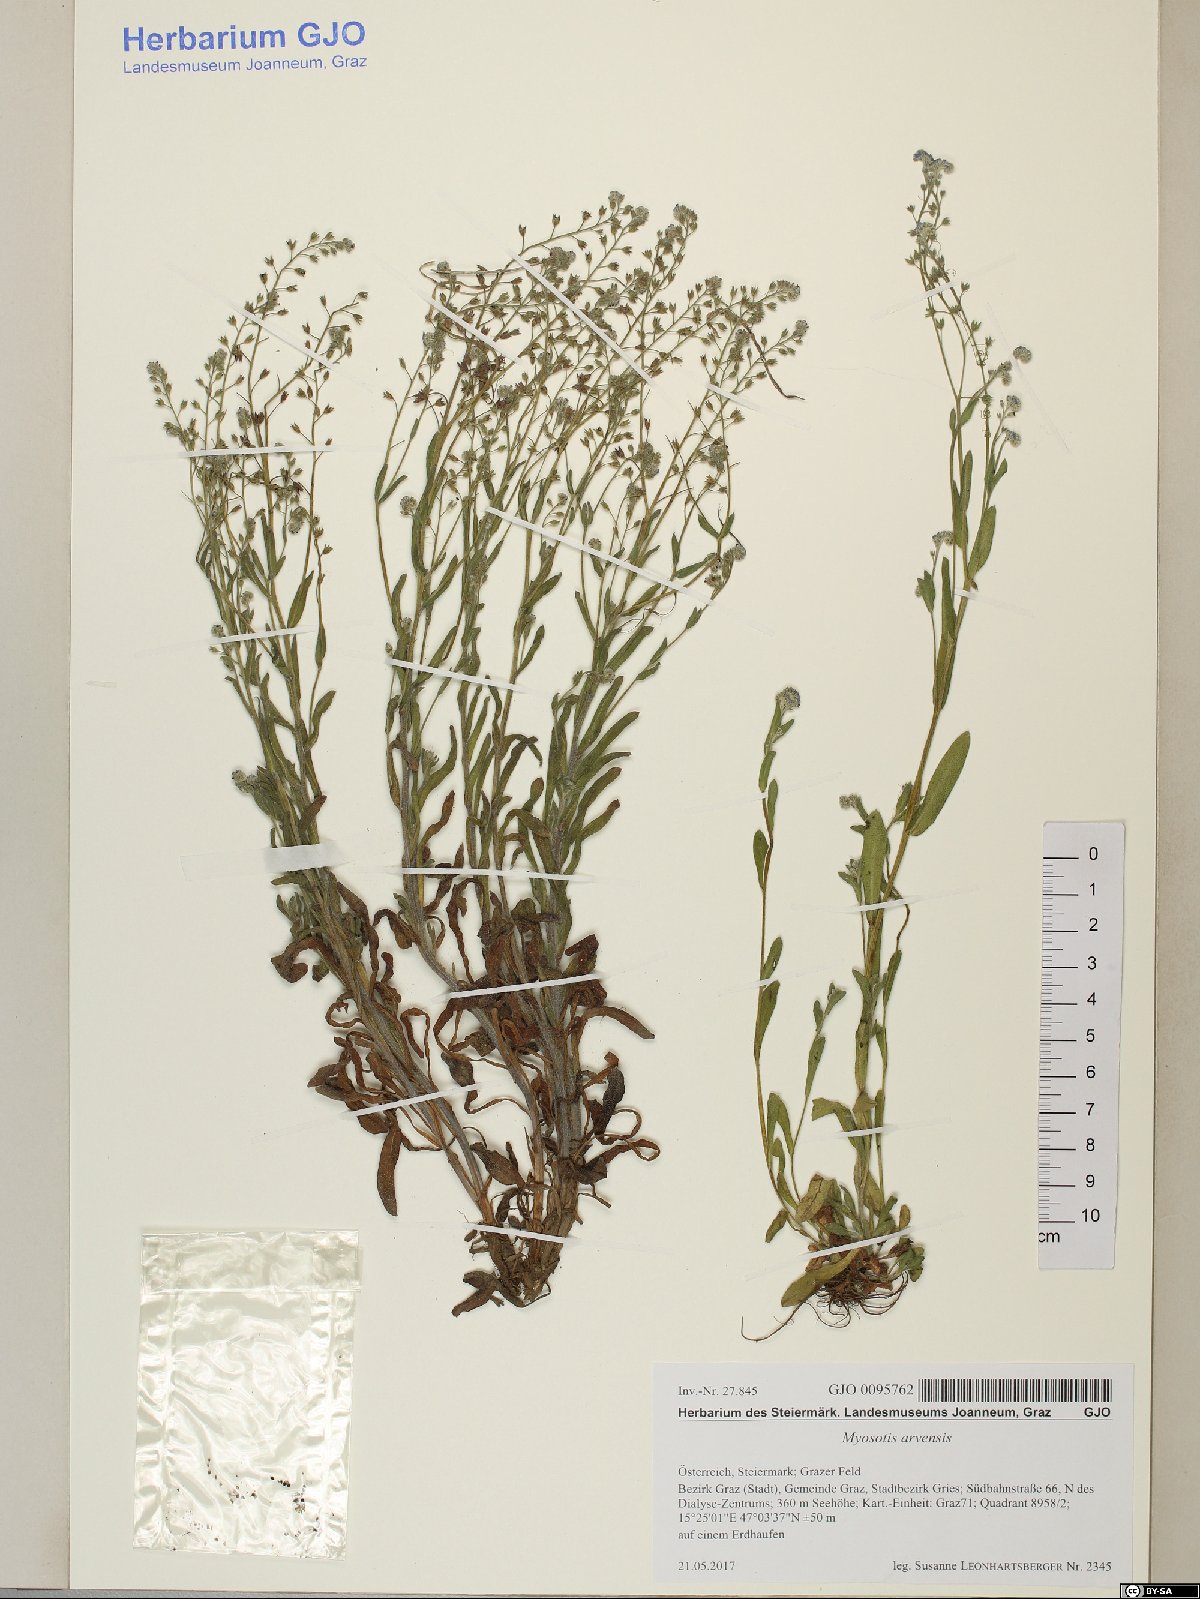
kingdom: Plantae
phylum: Tracheophyta
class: Magnoliopsida
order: Boraginales
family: Boraginaceae
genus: Myosotis
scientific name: Myosotis arvensis
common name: Field forget-me-not
